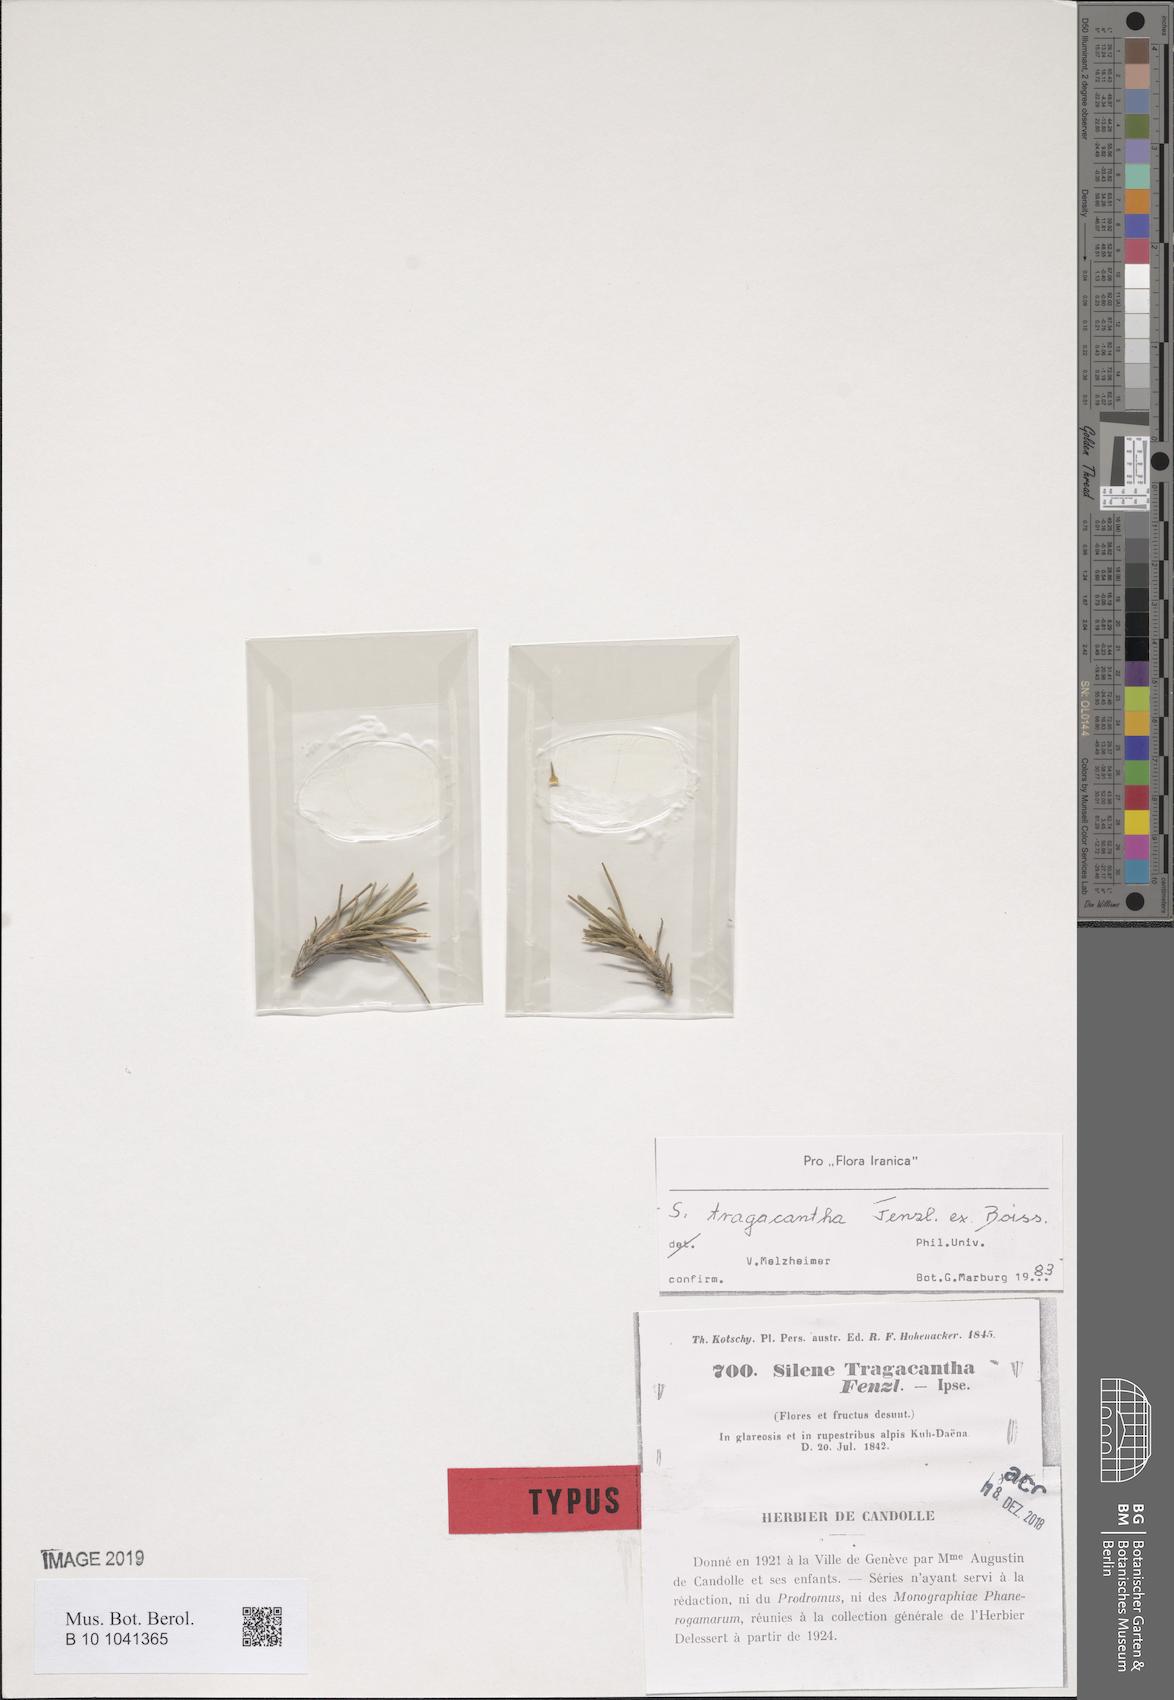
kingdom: Plantae
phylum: Tracheophyta
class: Magnoliopsida
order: Caryophyllales
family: Caryophyllaceae
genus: Silene
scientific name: Silene tragacantha
